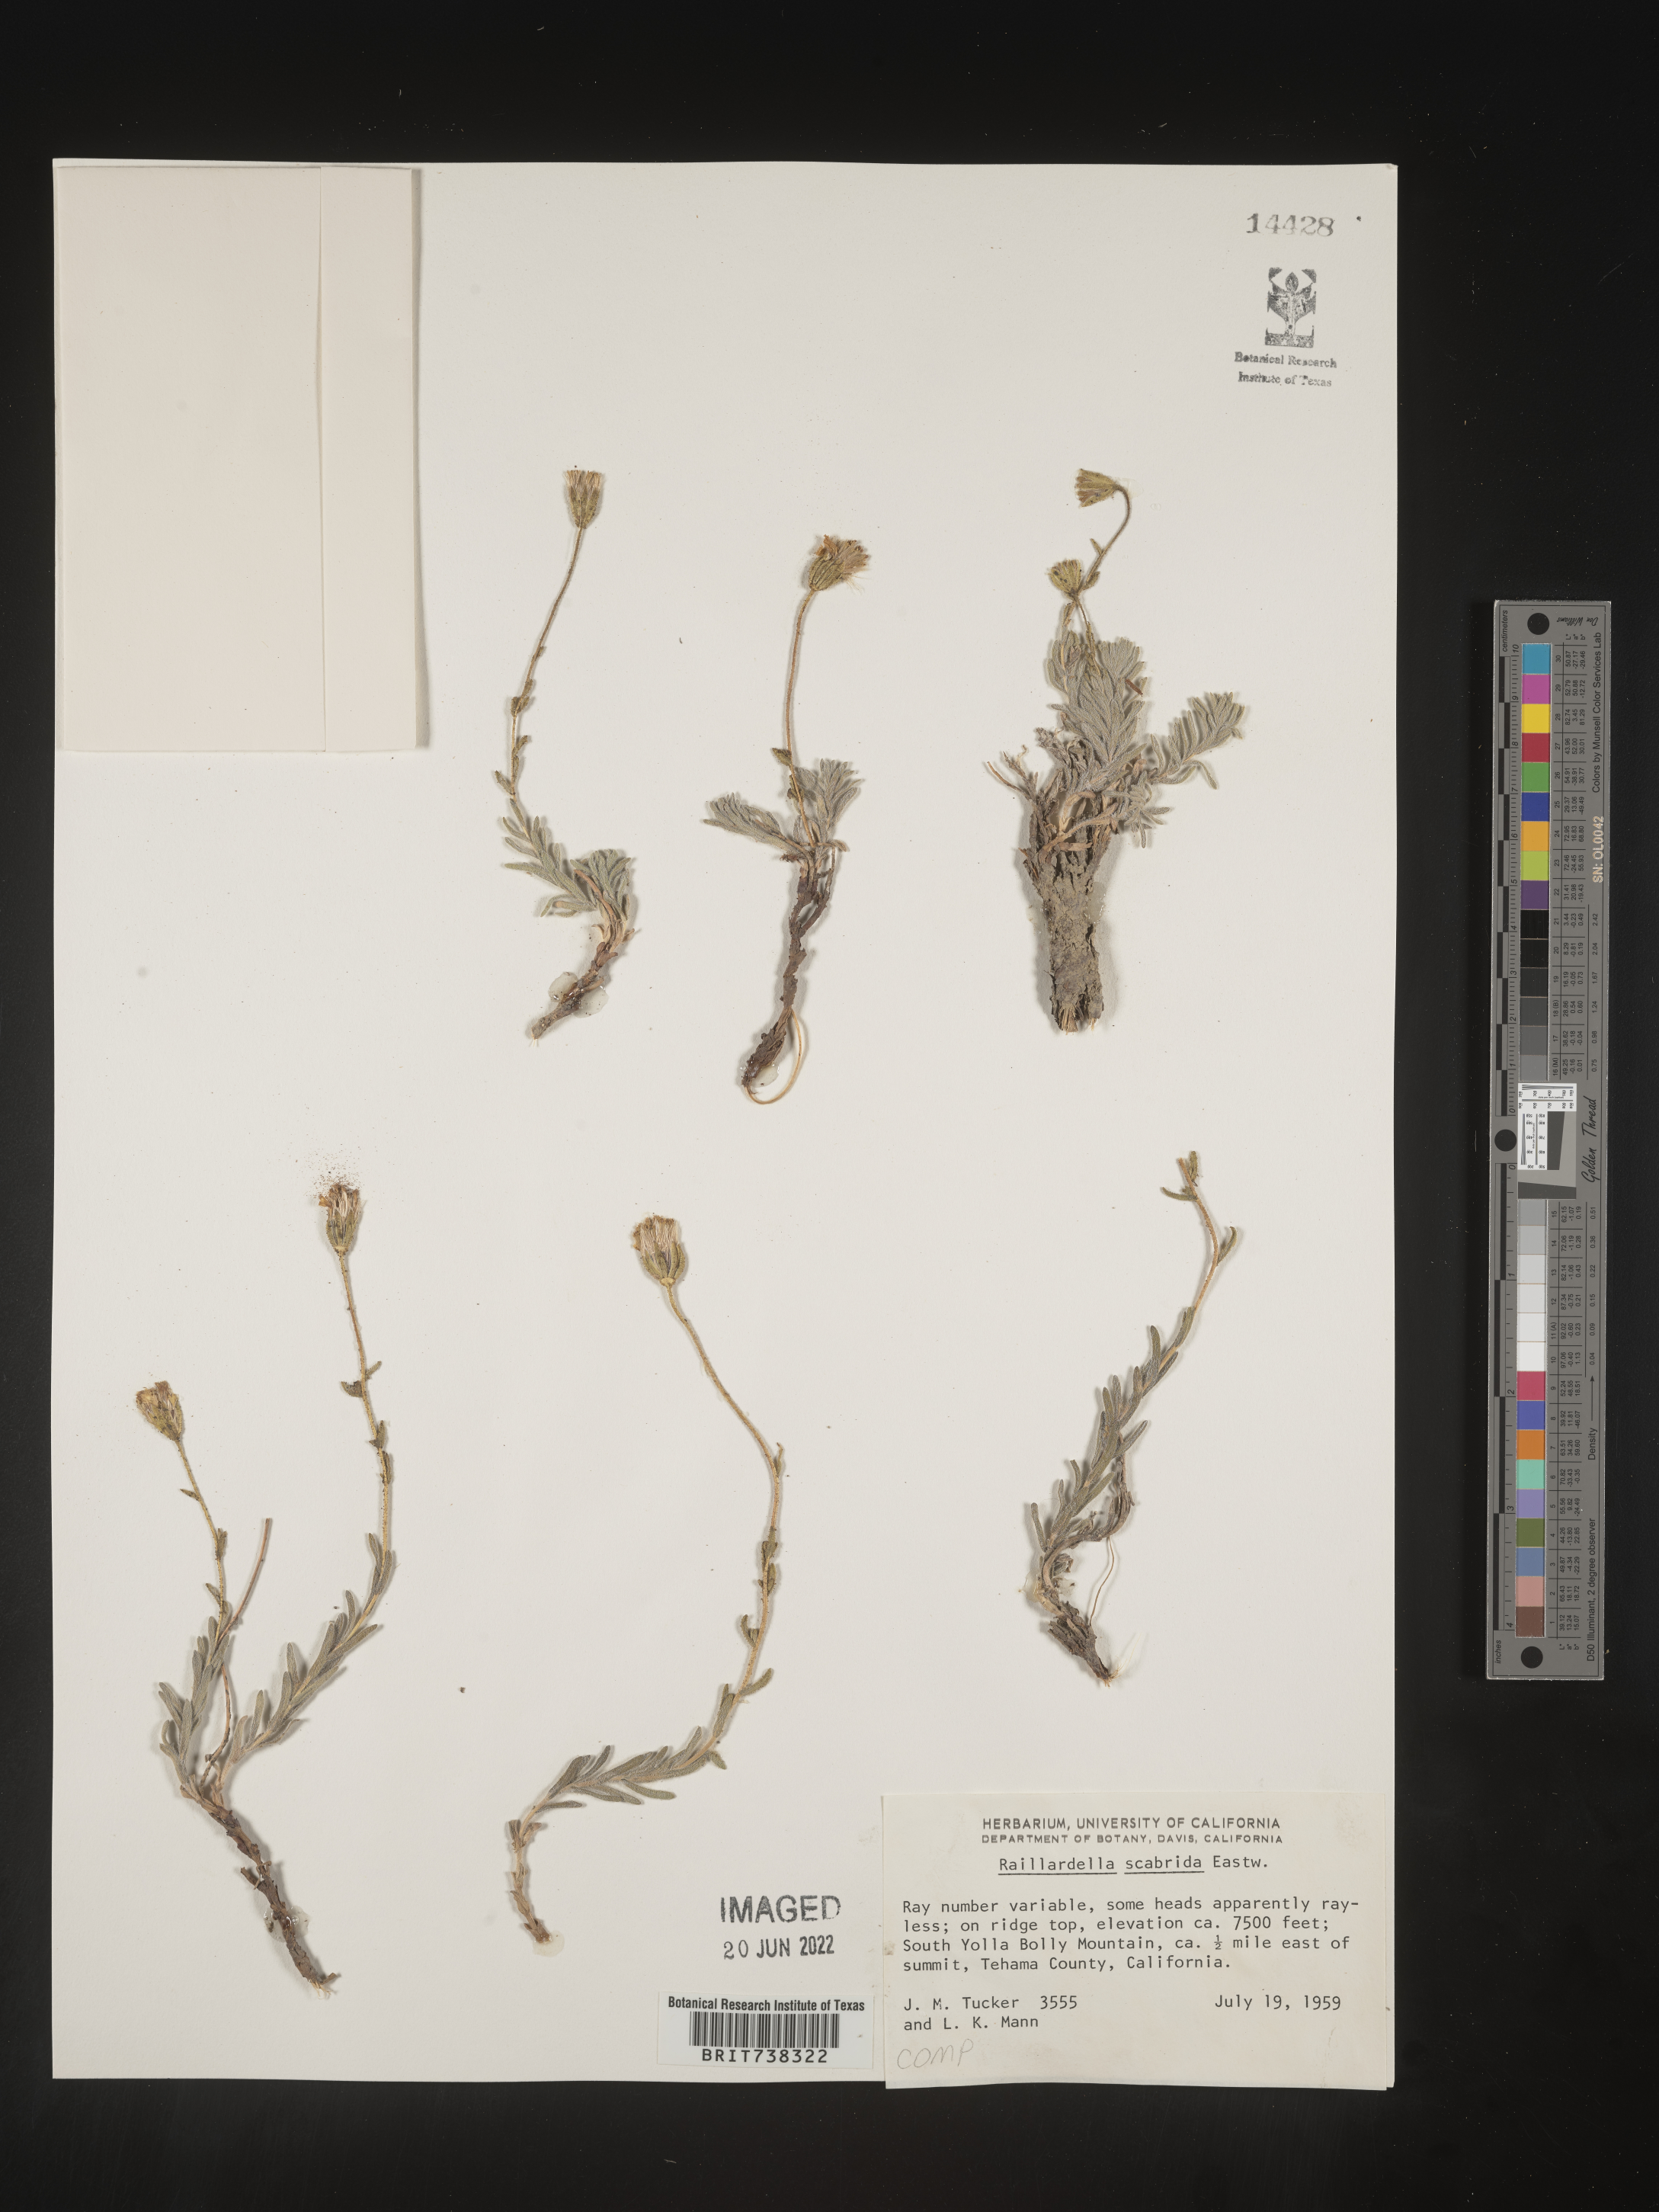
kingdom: Plantae
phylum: Tracheophyta
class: Magnoliopsida
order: Asterales
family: Asteraceae
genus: Raillardella
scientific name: Raillardella
